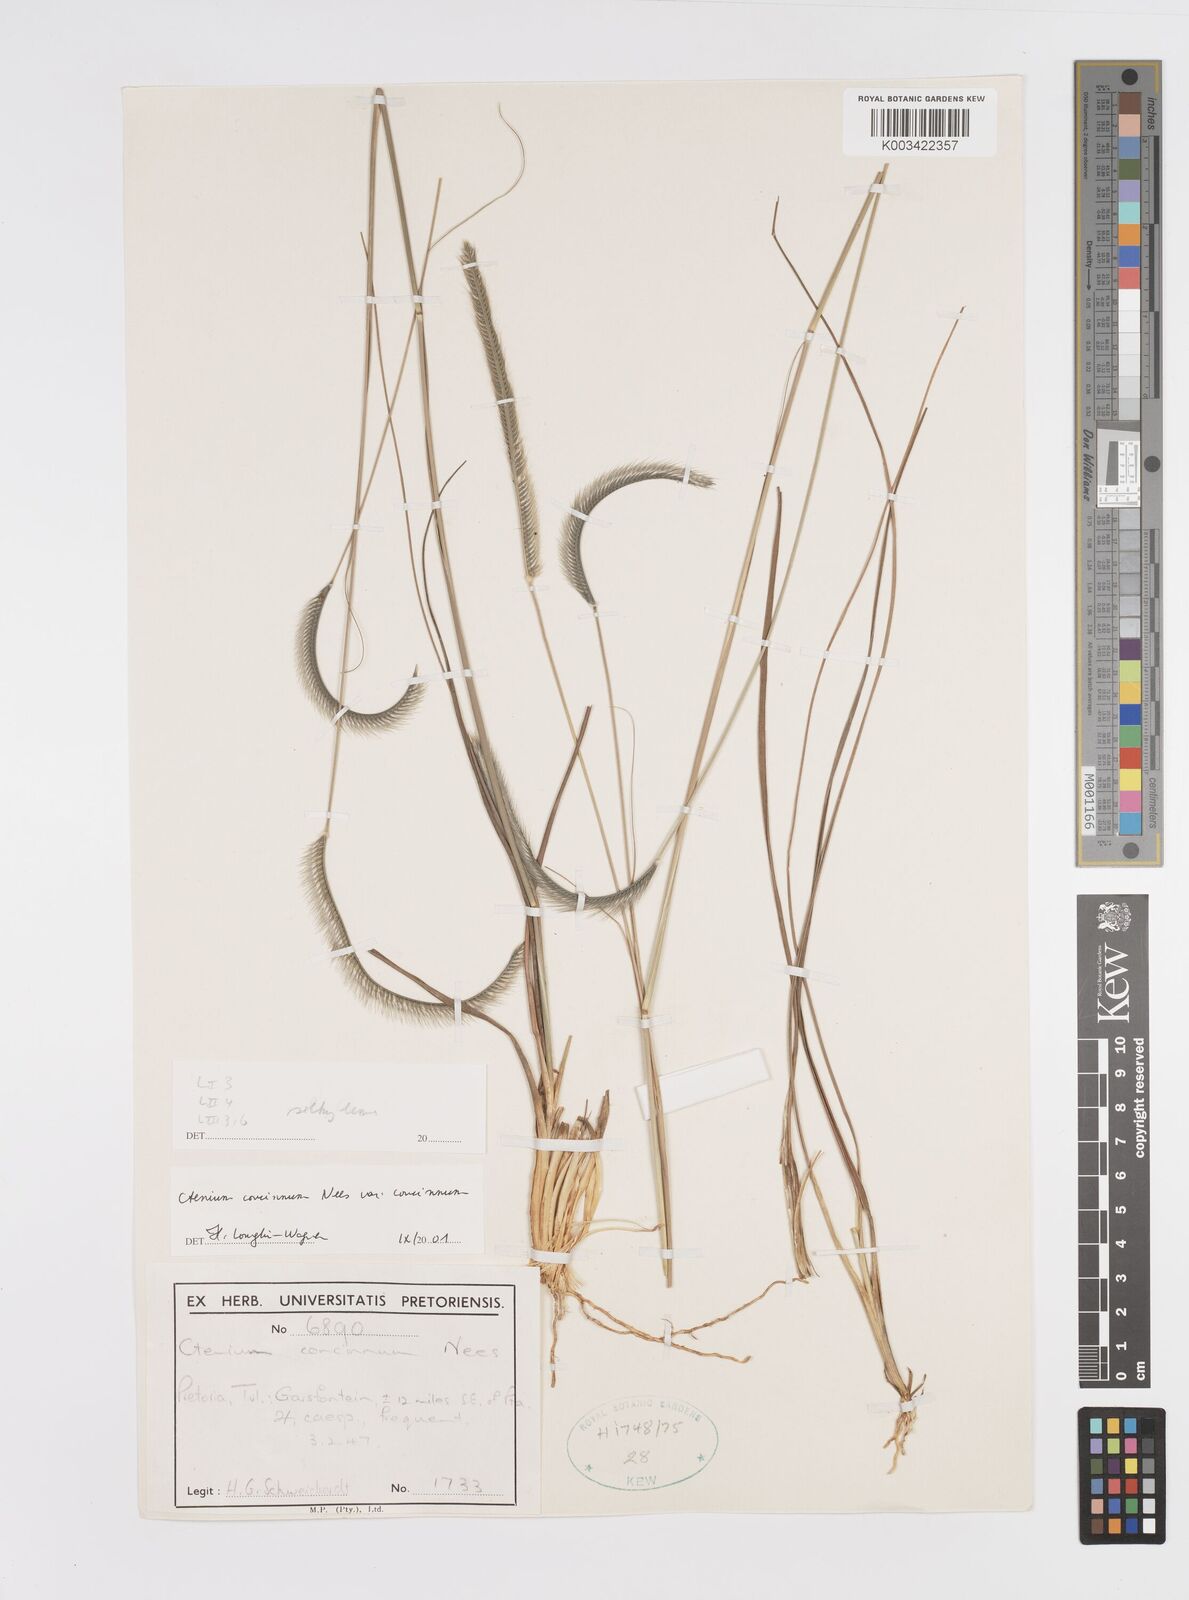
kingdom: Plantae
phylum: Tracheophyta
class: Liliopsida
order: Poales
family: Poaceae
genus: Ctenium
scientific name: Ctenium concinnum
